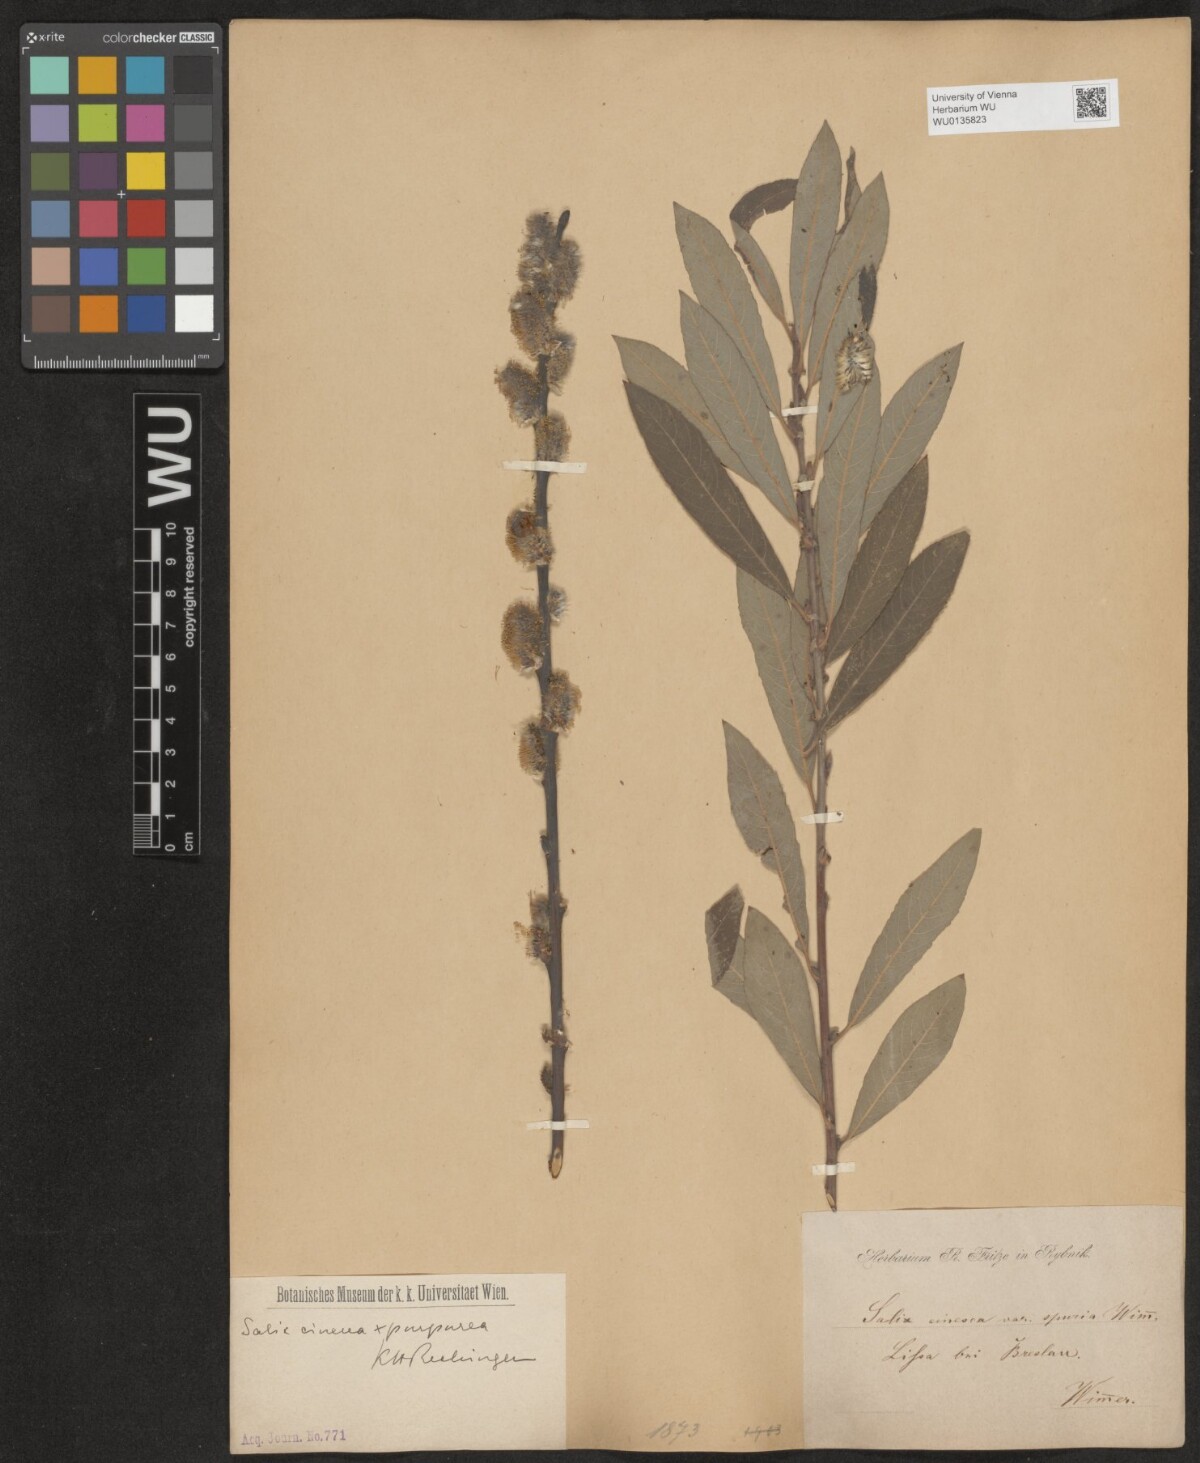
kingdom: Plantae
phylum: Tracheophyta
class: Magnoliopsida
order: Malpighiales
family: Salicaceae
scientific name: Salicaceae
